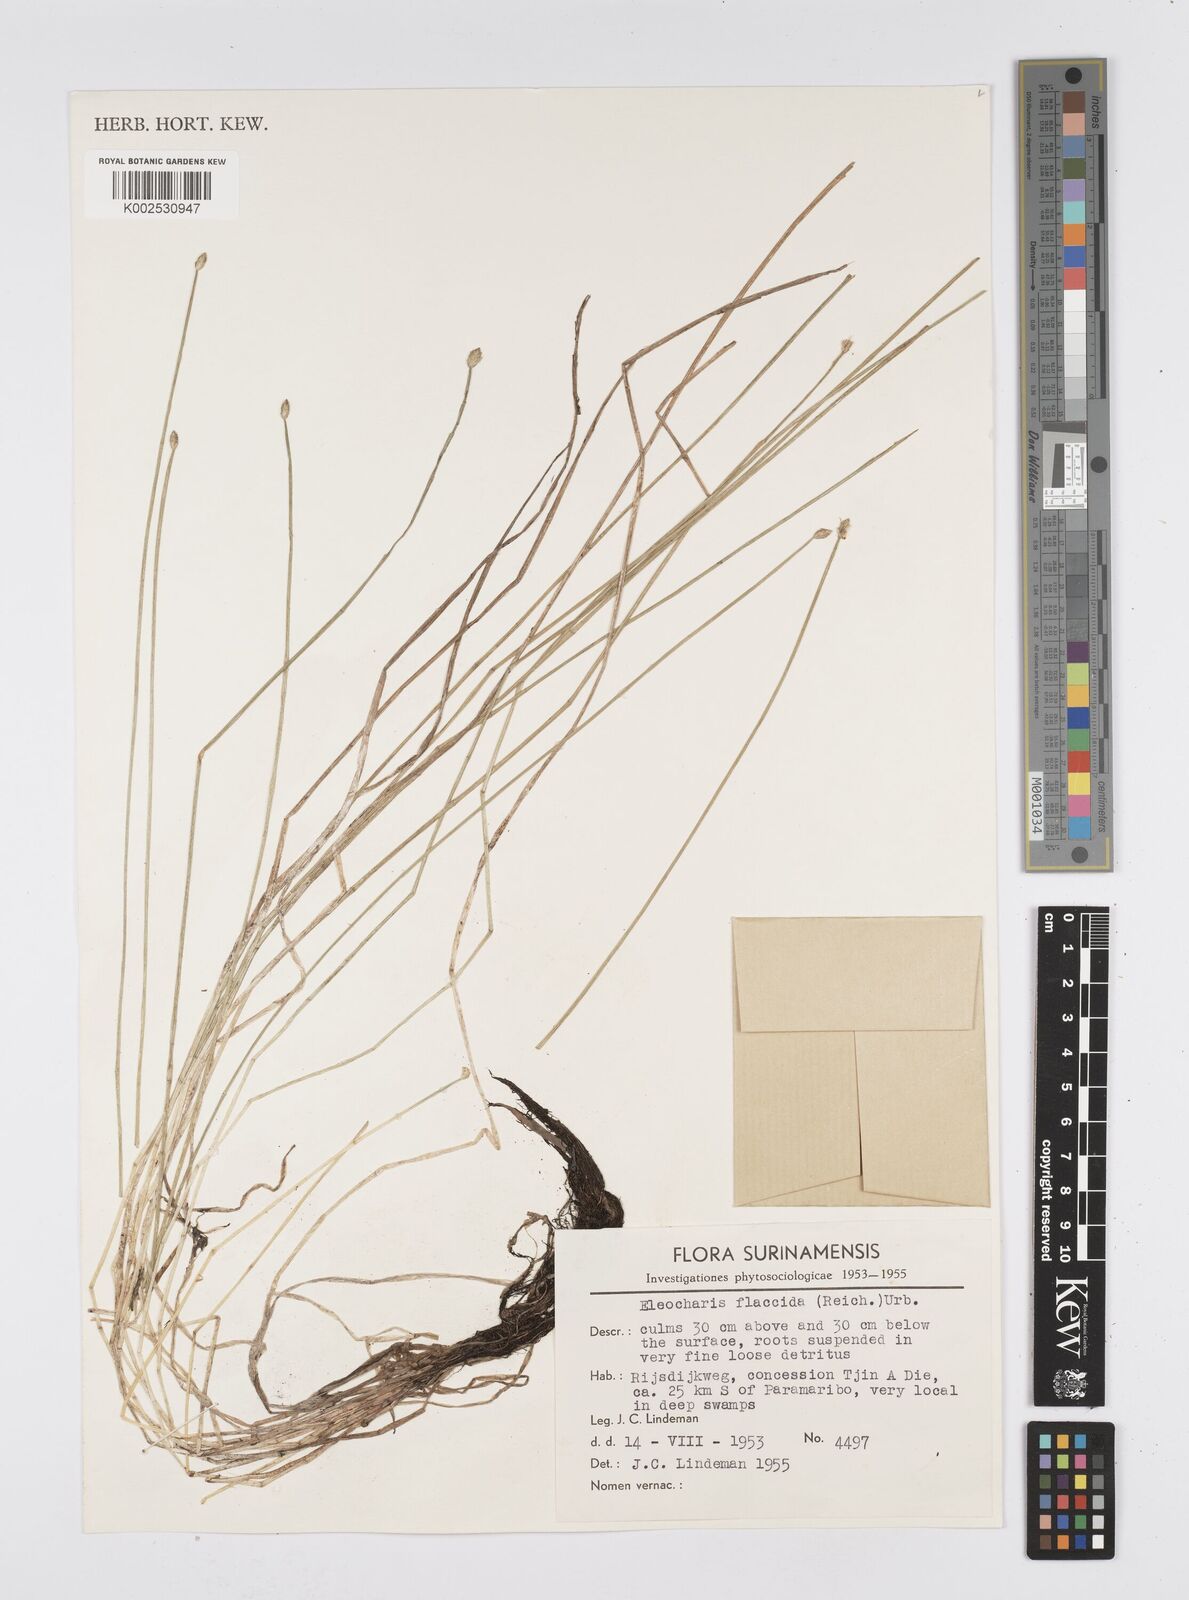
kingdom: Plantae
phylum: Tracheophyta
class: Liliopsida
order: Poales
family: Cyperaceae
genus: Eleocharis
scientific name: Eleocharis flavescens
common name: Yellow spikerush
